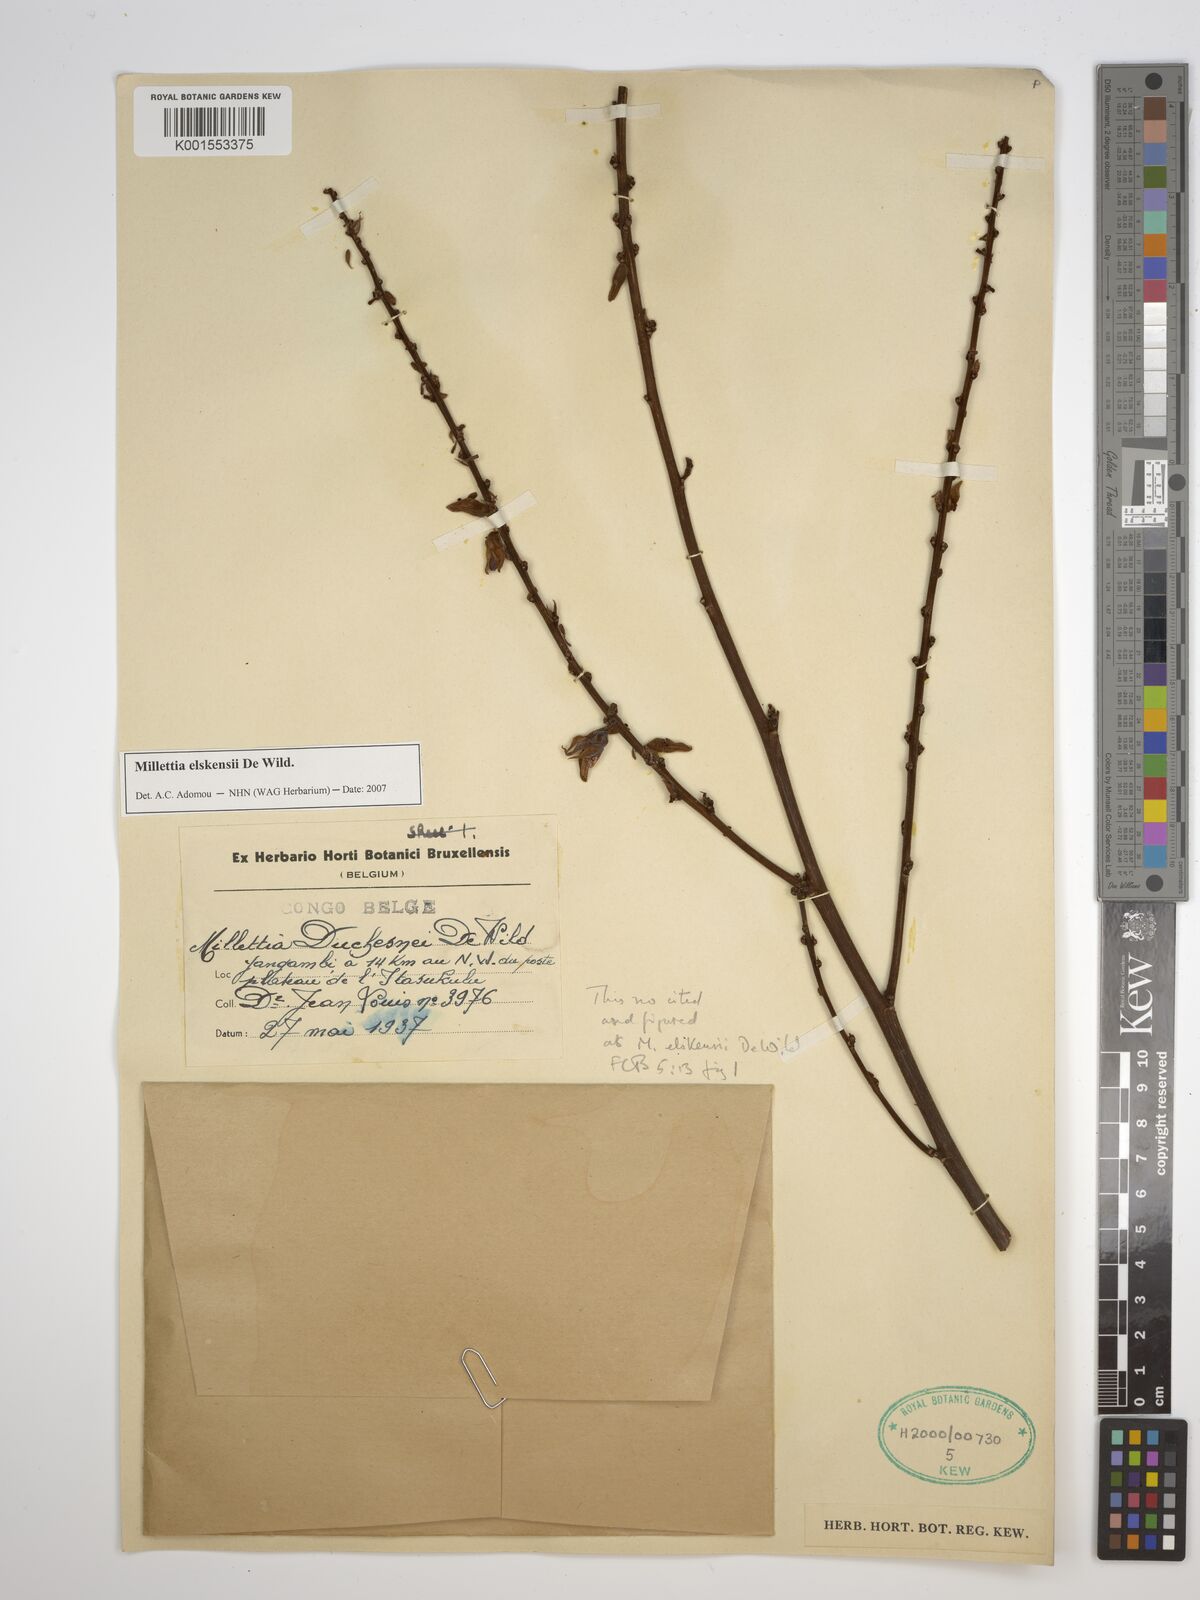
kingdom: Plantae
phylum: Tracheophyta
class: Magnoliopsida
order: Fabales
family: Fabaceae
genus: Millettia
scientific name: Millettia elskensii
